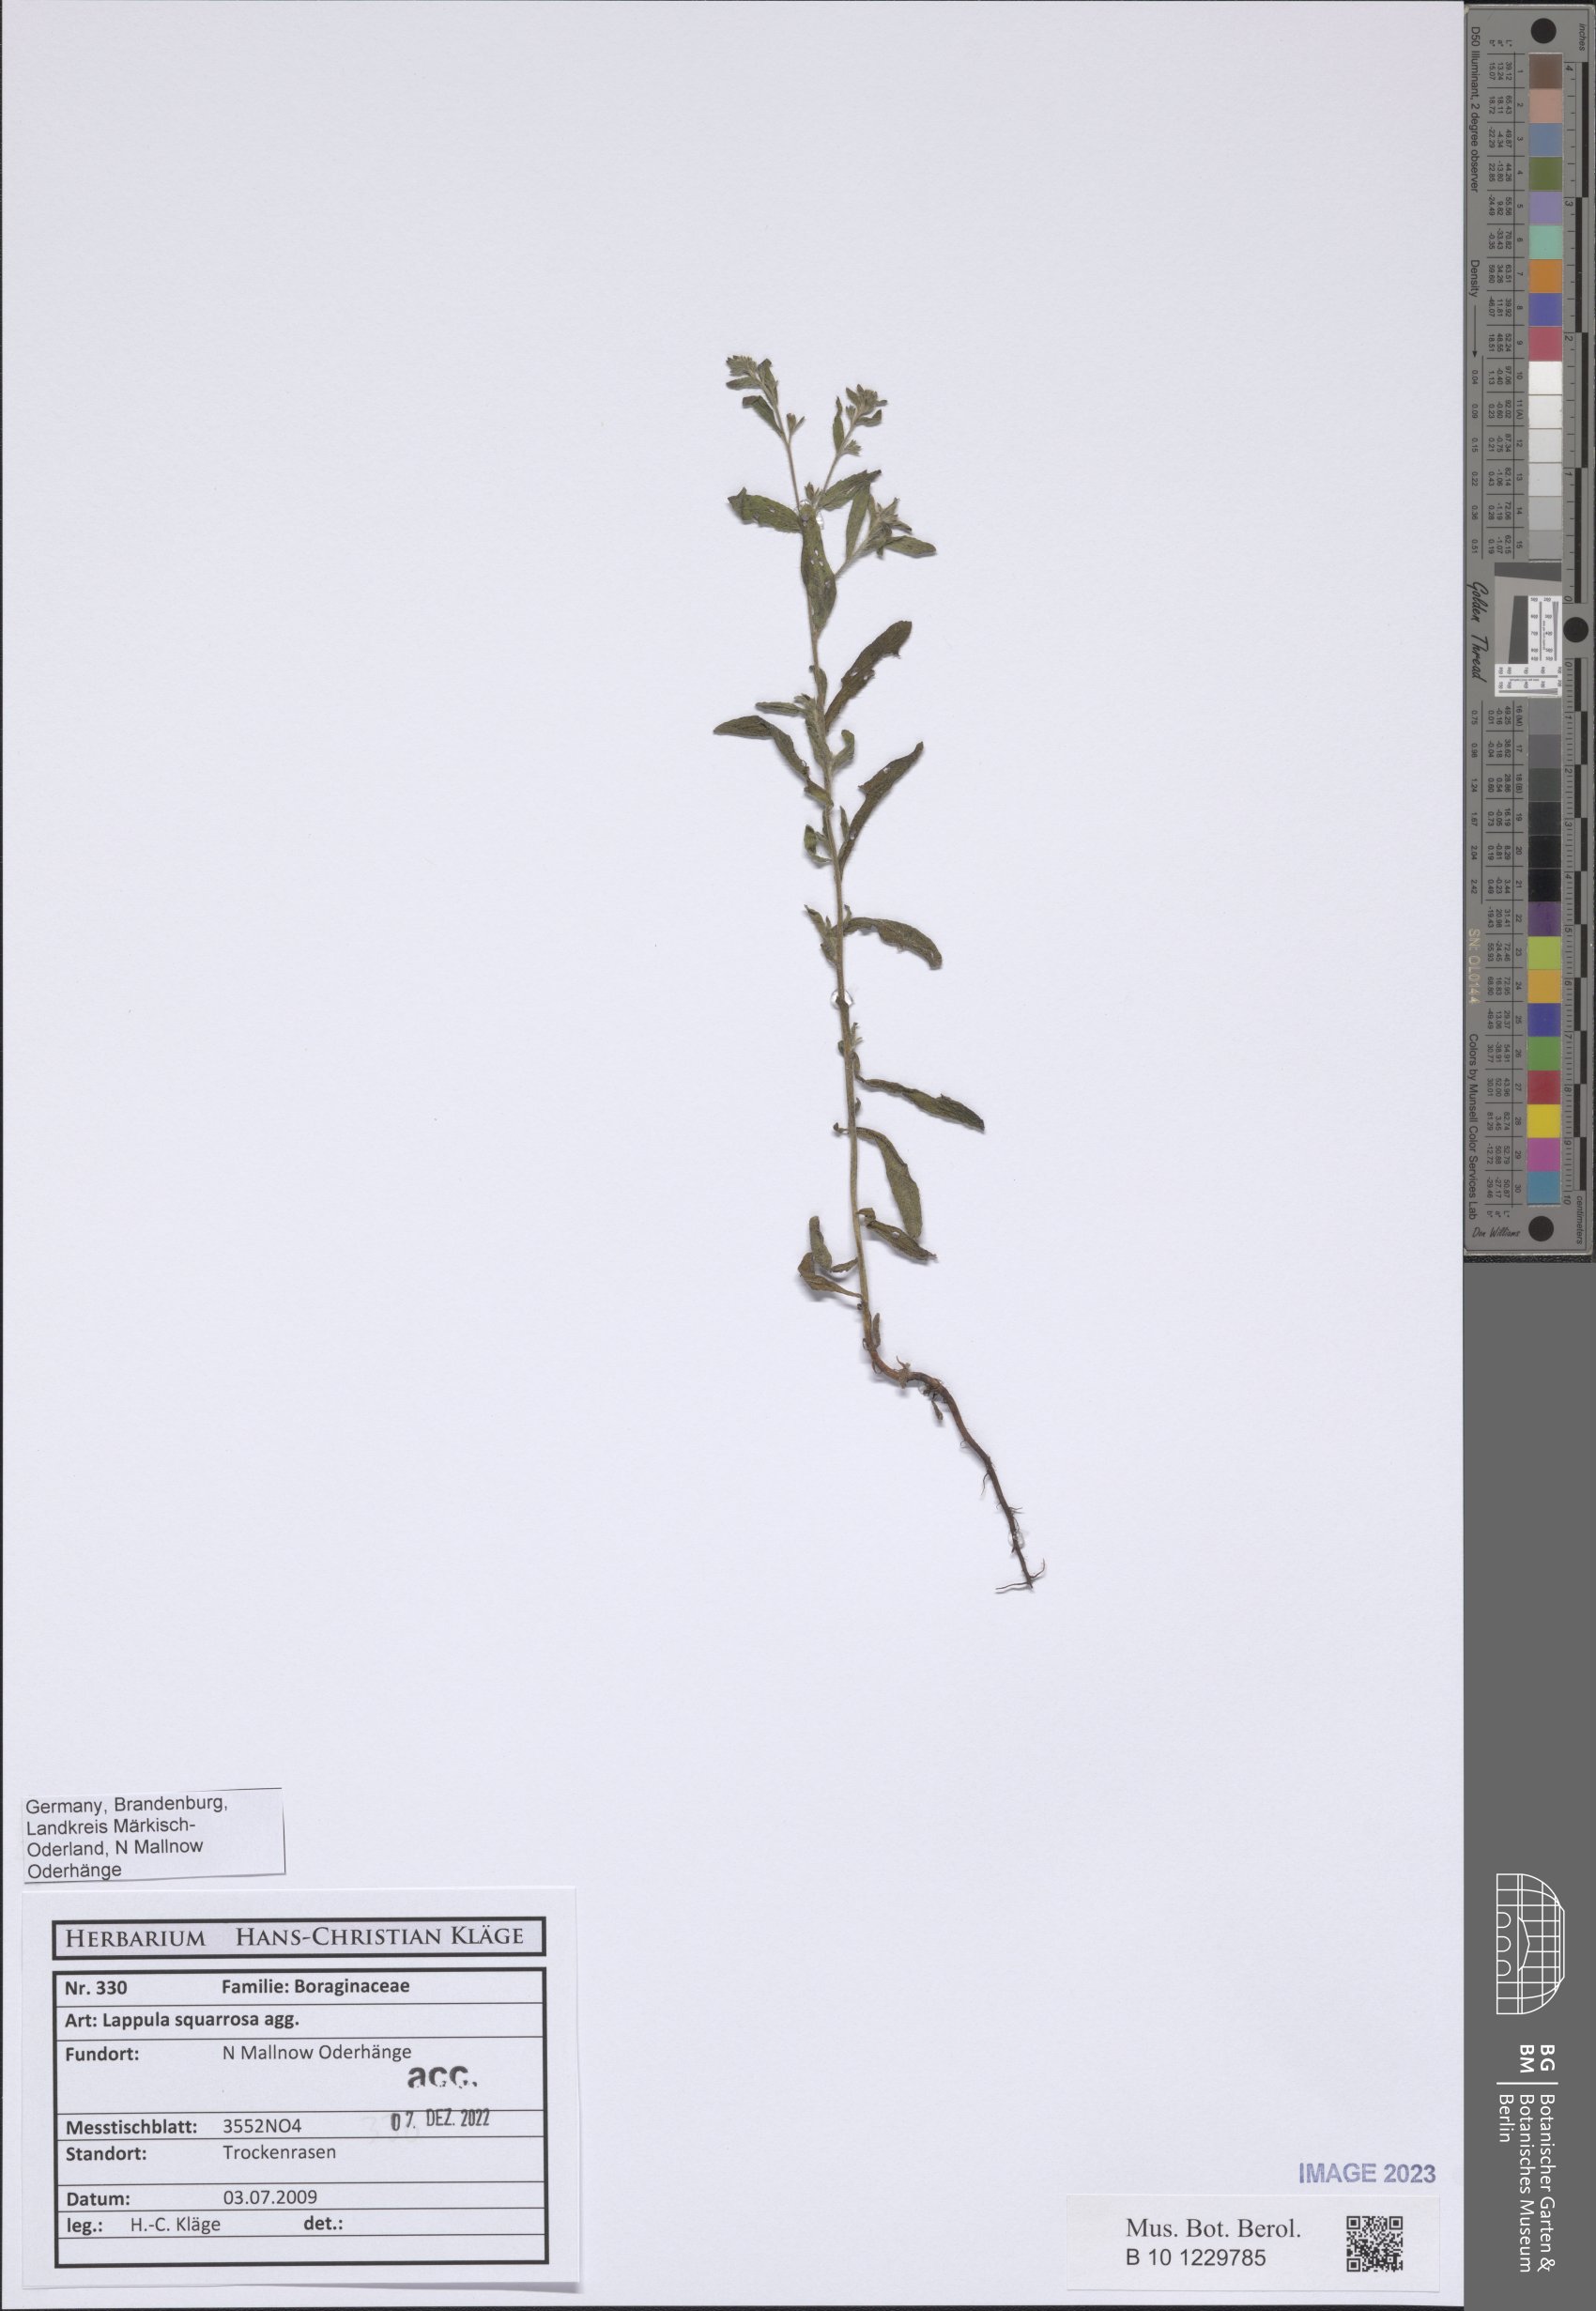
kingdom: Plantae
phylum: Tracheophyta
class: Magnoliopsida
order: Boraginales
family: Boraginaceae
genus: Lappula
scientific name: Lappula squarrosa
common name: European stickseed
